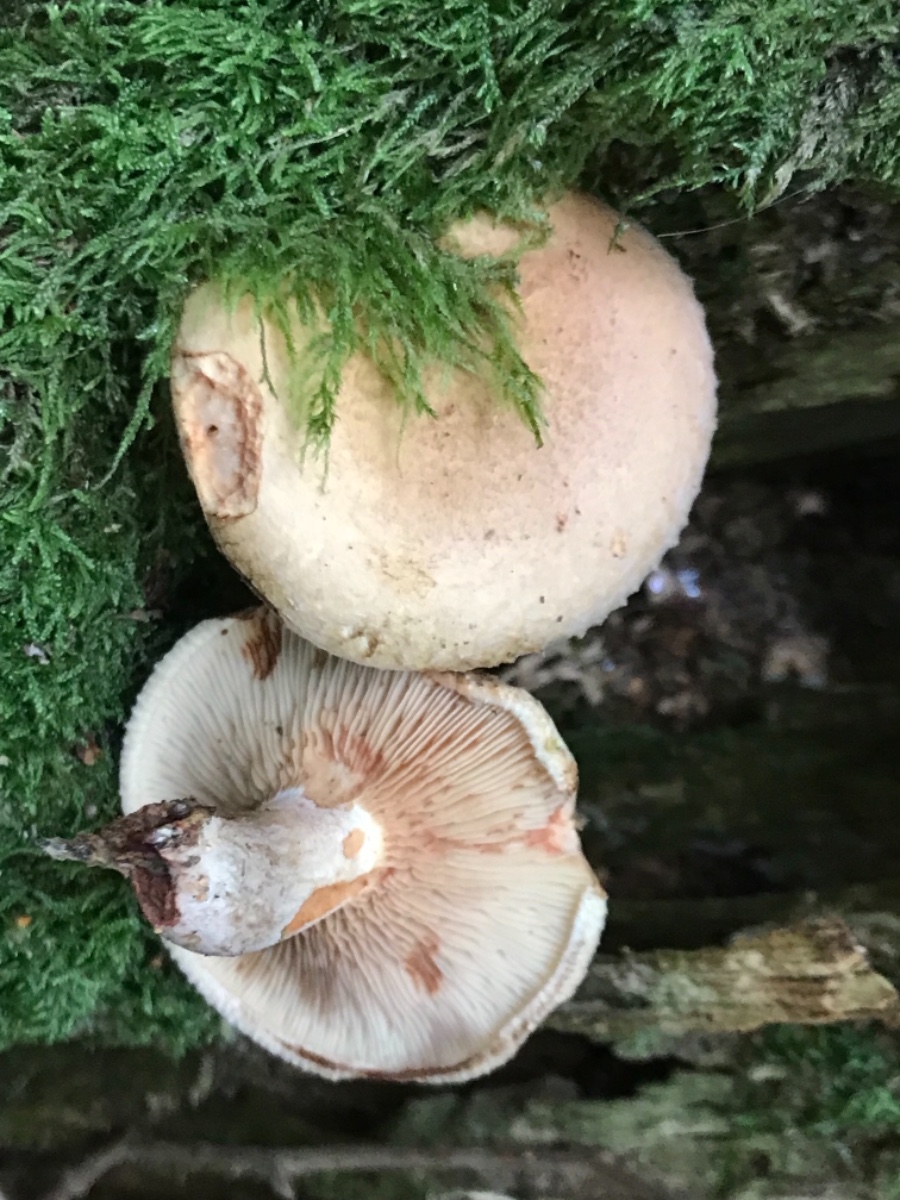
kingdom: Fungi
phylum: Basidiomycota
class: Agaricomycetes
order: Boletales
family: Paxillaceae
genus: Paxillus
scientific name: Paxillus
